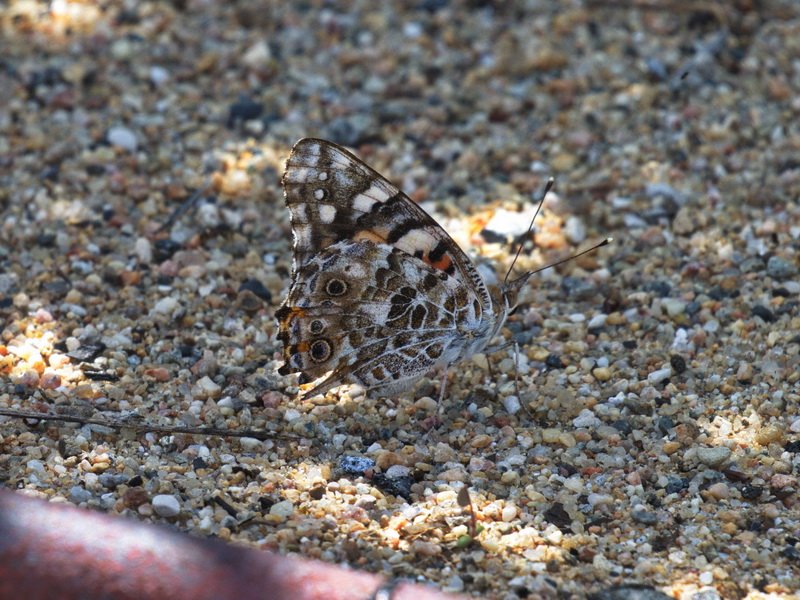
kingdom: Animalia
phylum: Arthropoda
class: Insecta
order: Lepidoptera
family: Nymphalidae
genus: Vanessa
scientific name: Vanessa cardui
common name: Painted Lady
